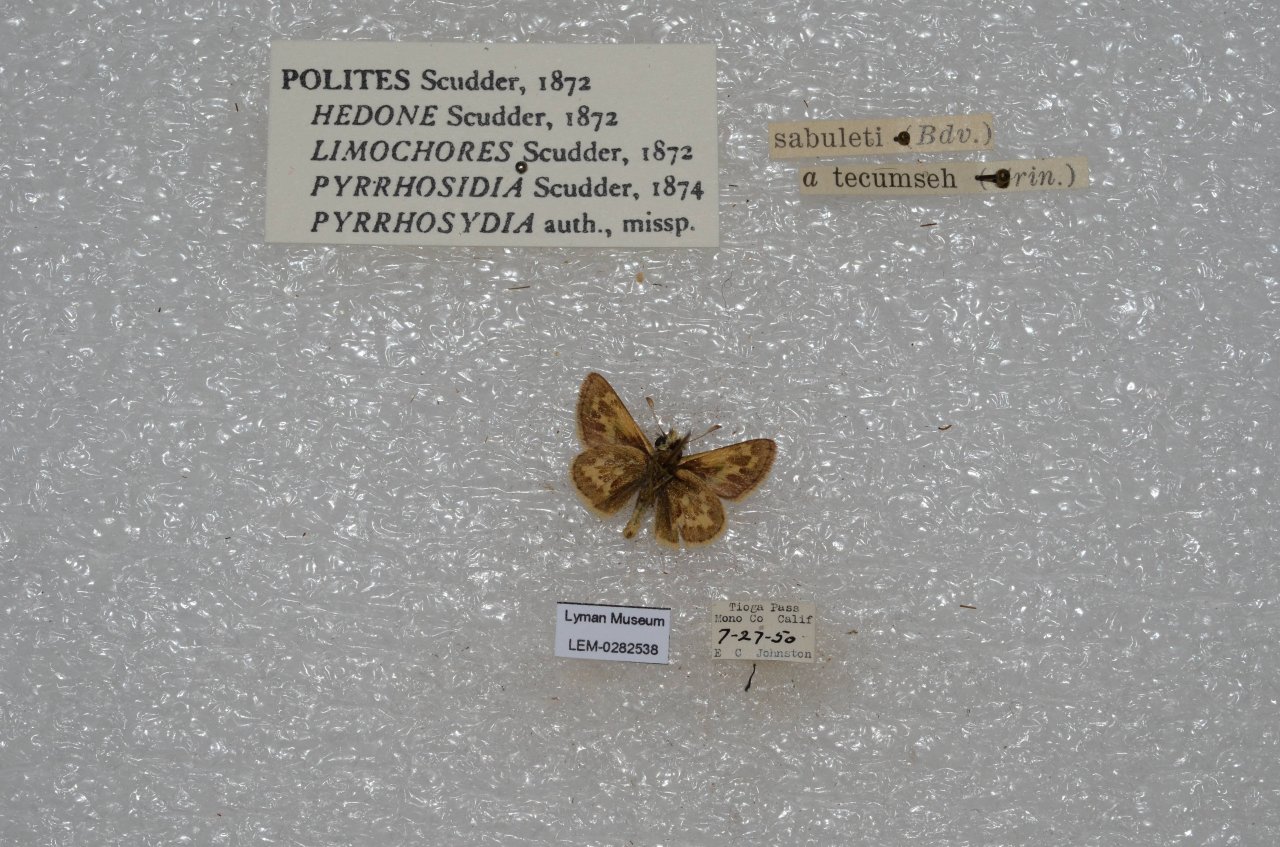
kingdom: Animalia
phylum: Arthropoda
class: Insecta
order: Lepidoptera
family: Hesperiidae
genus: Polites
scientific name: Polites sabuleti
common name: Sandhill Skipper
